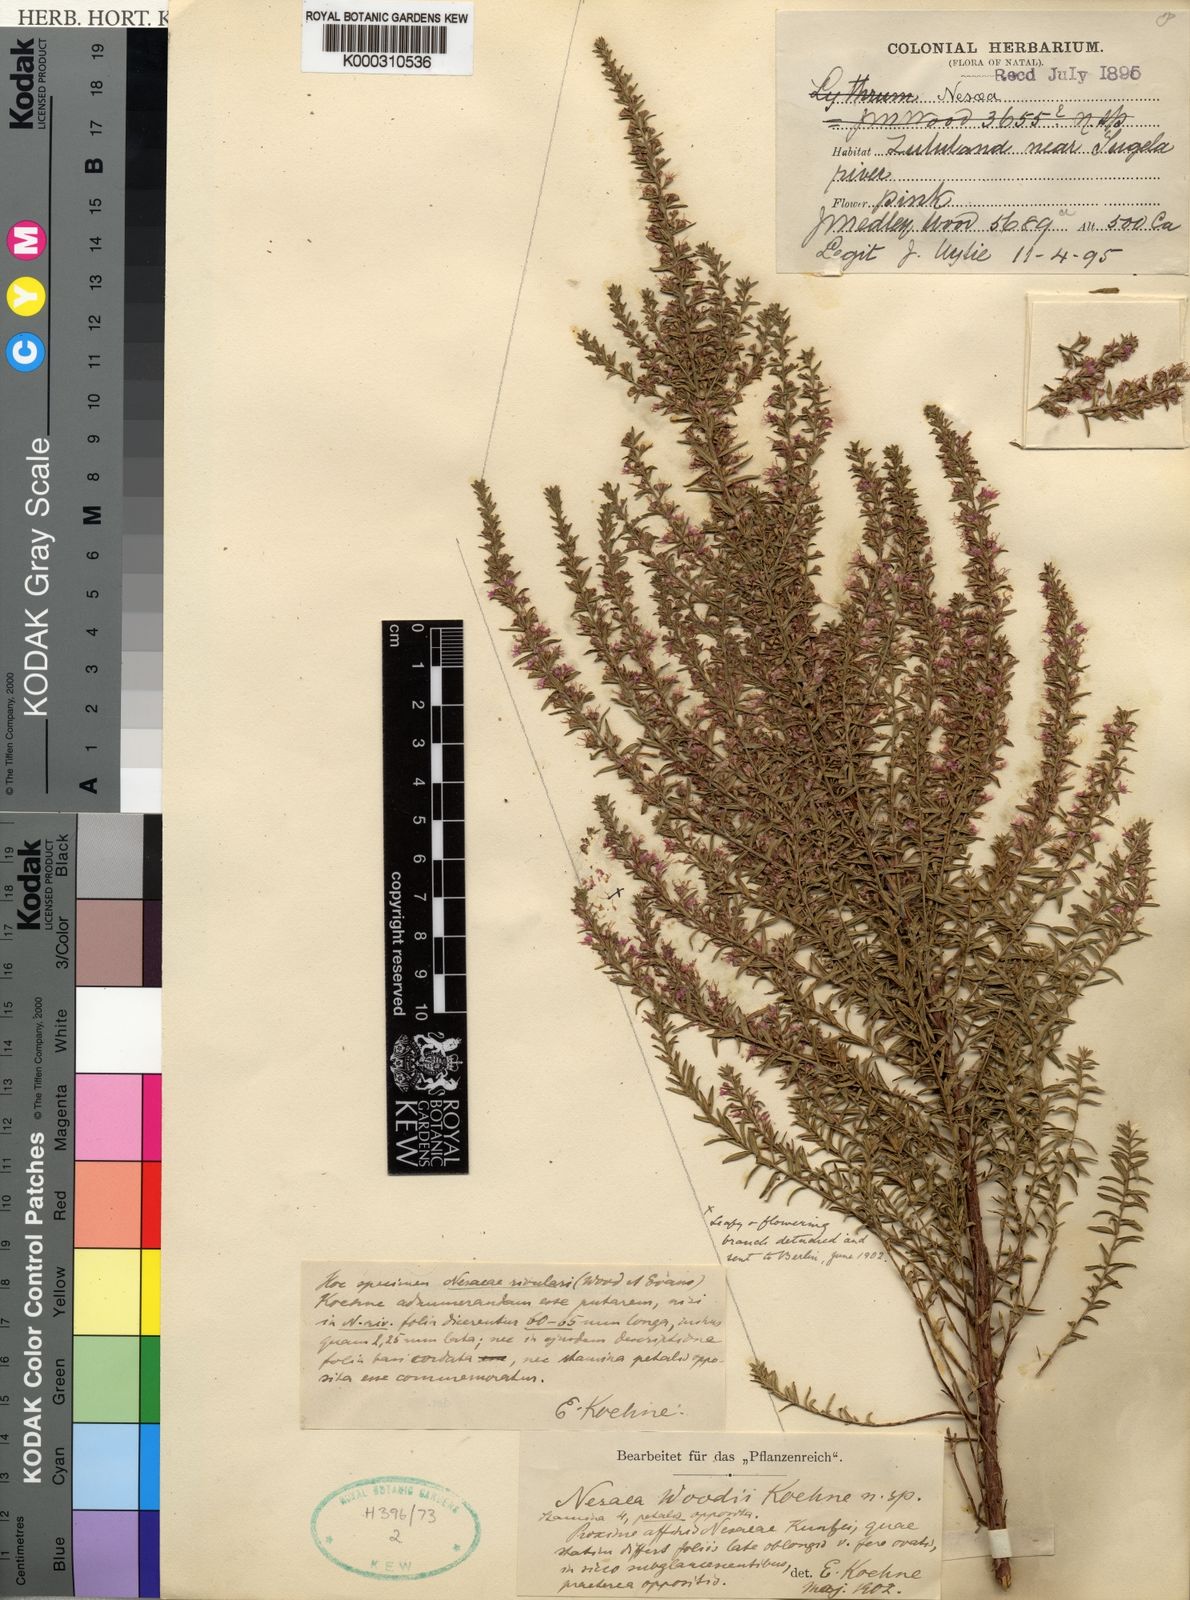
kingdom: Plantae
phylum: Tracheophyta
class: Magnoliopsida
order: Myrtales
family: Lythraceae
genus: Ammannia
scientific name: Ammannia woodii
